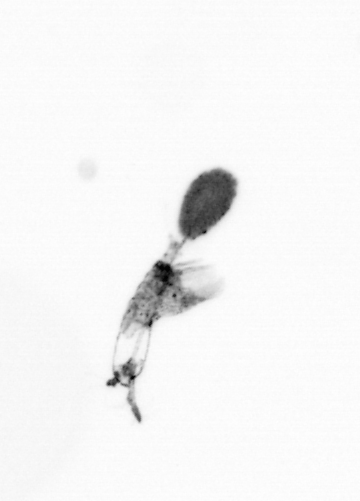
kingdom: Animalia
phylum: Arthropoda
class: Copepoda
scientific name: Copepoda
